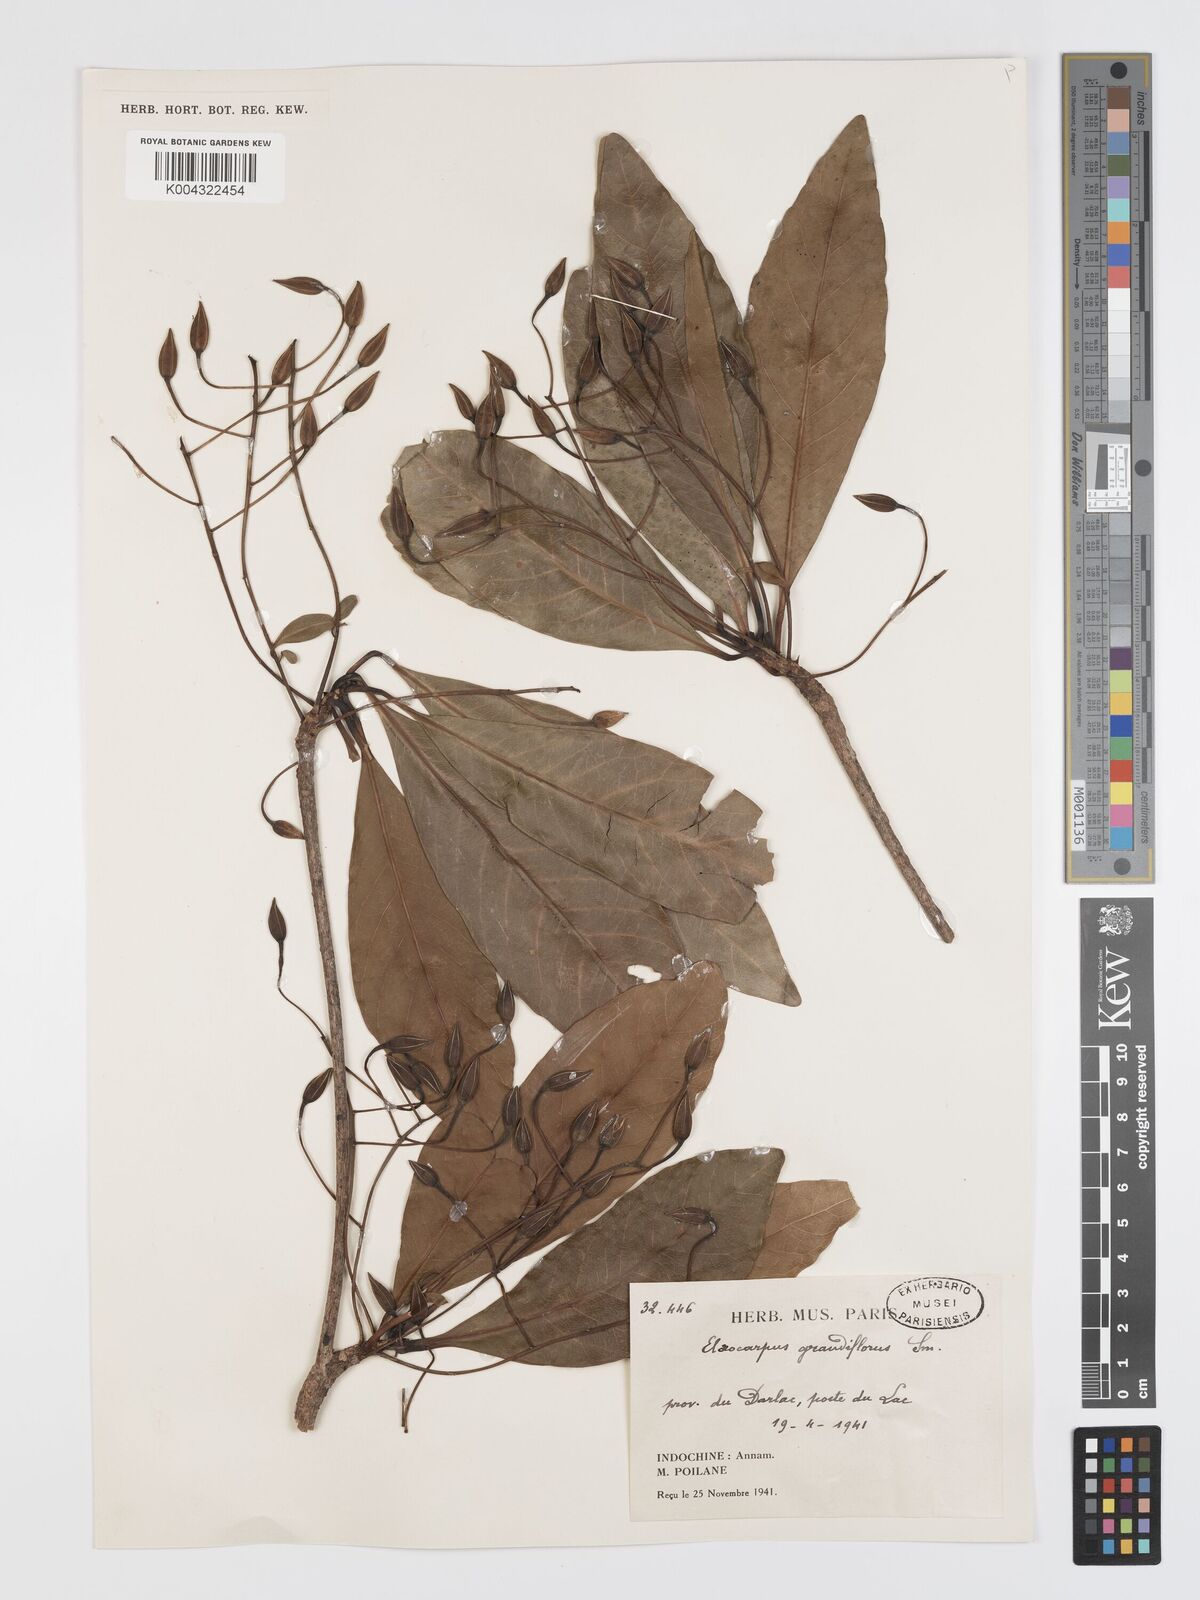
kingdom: Plantae
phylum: Tracheophyta
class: Magnoliopsida
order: Oxalidales
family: Elaeocarpaceae
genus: Elaeocarpus
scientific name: Elaeocarpus grandiflorus
